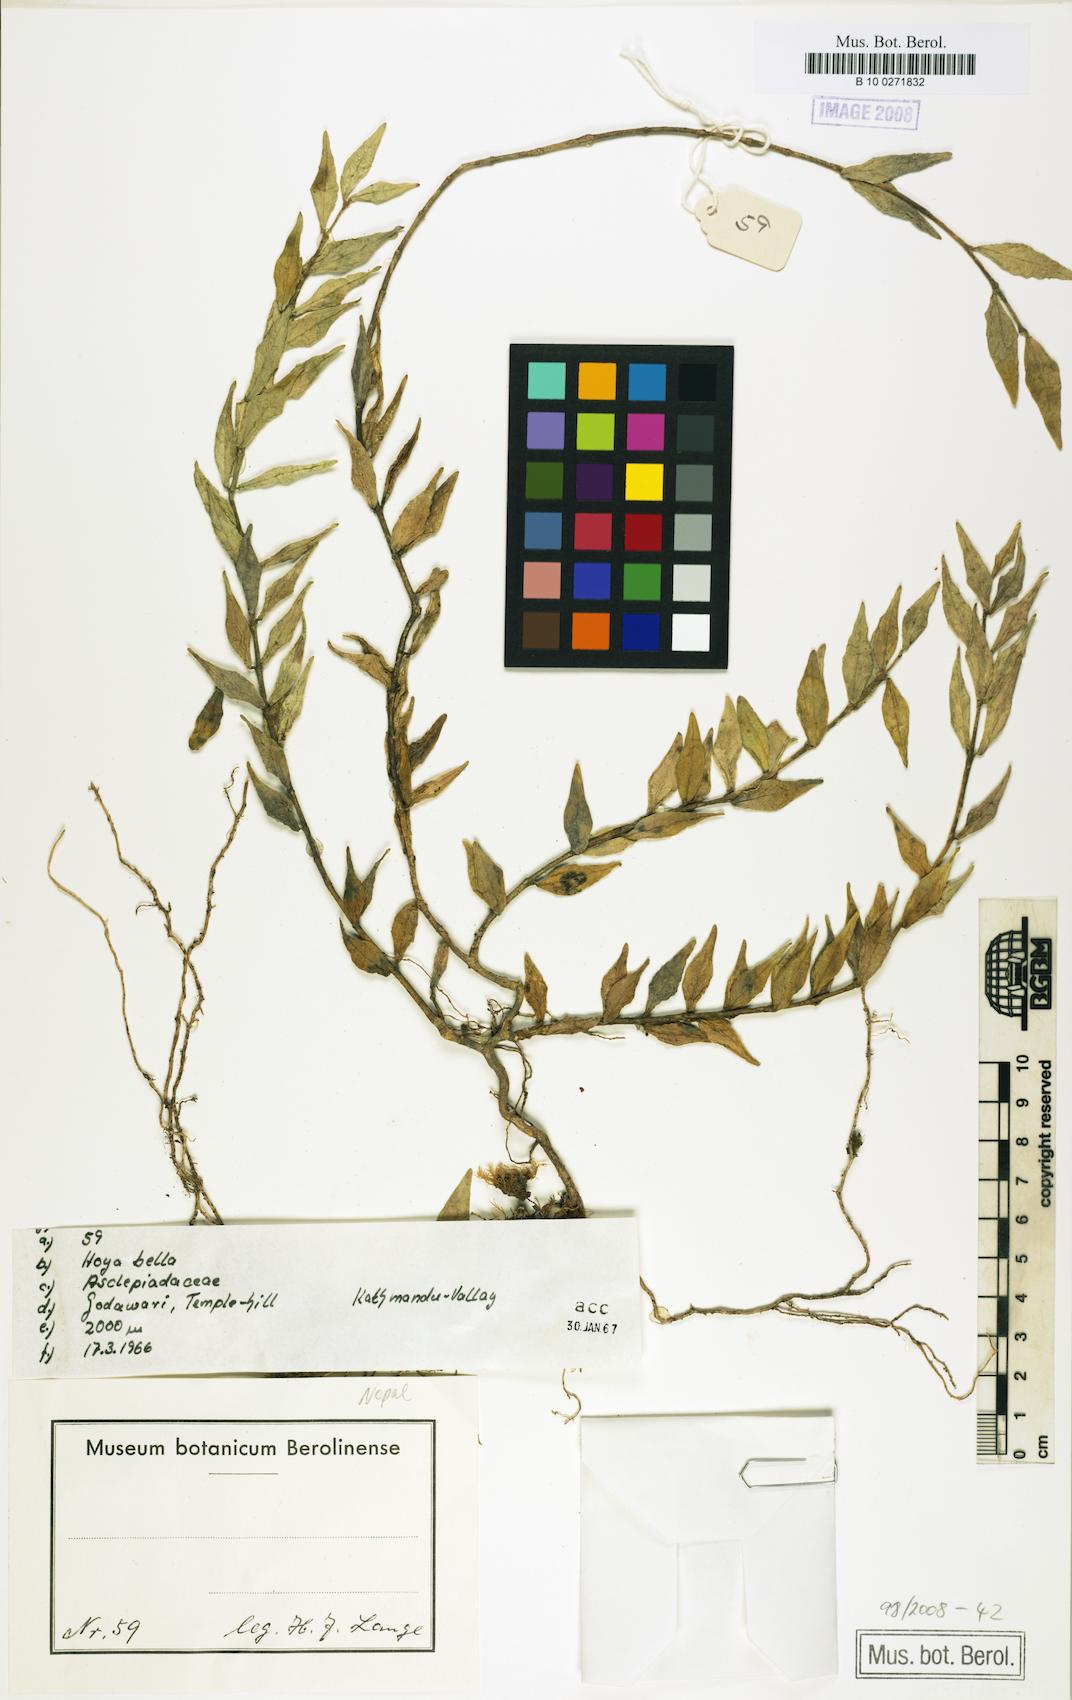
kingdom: Plantae
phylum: Tracheophyta
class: Magnoliopsida
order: Gentianales
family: Apocynaceae
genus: Hoya
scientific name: Hoya bella
